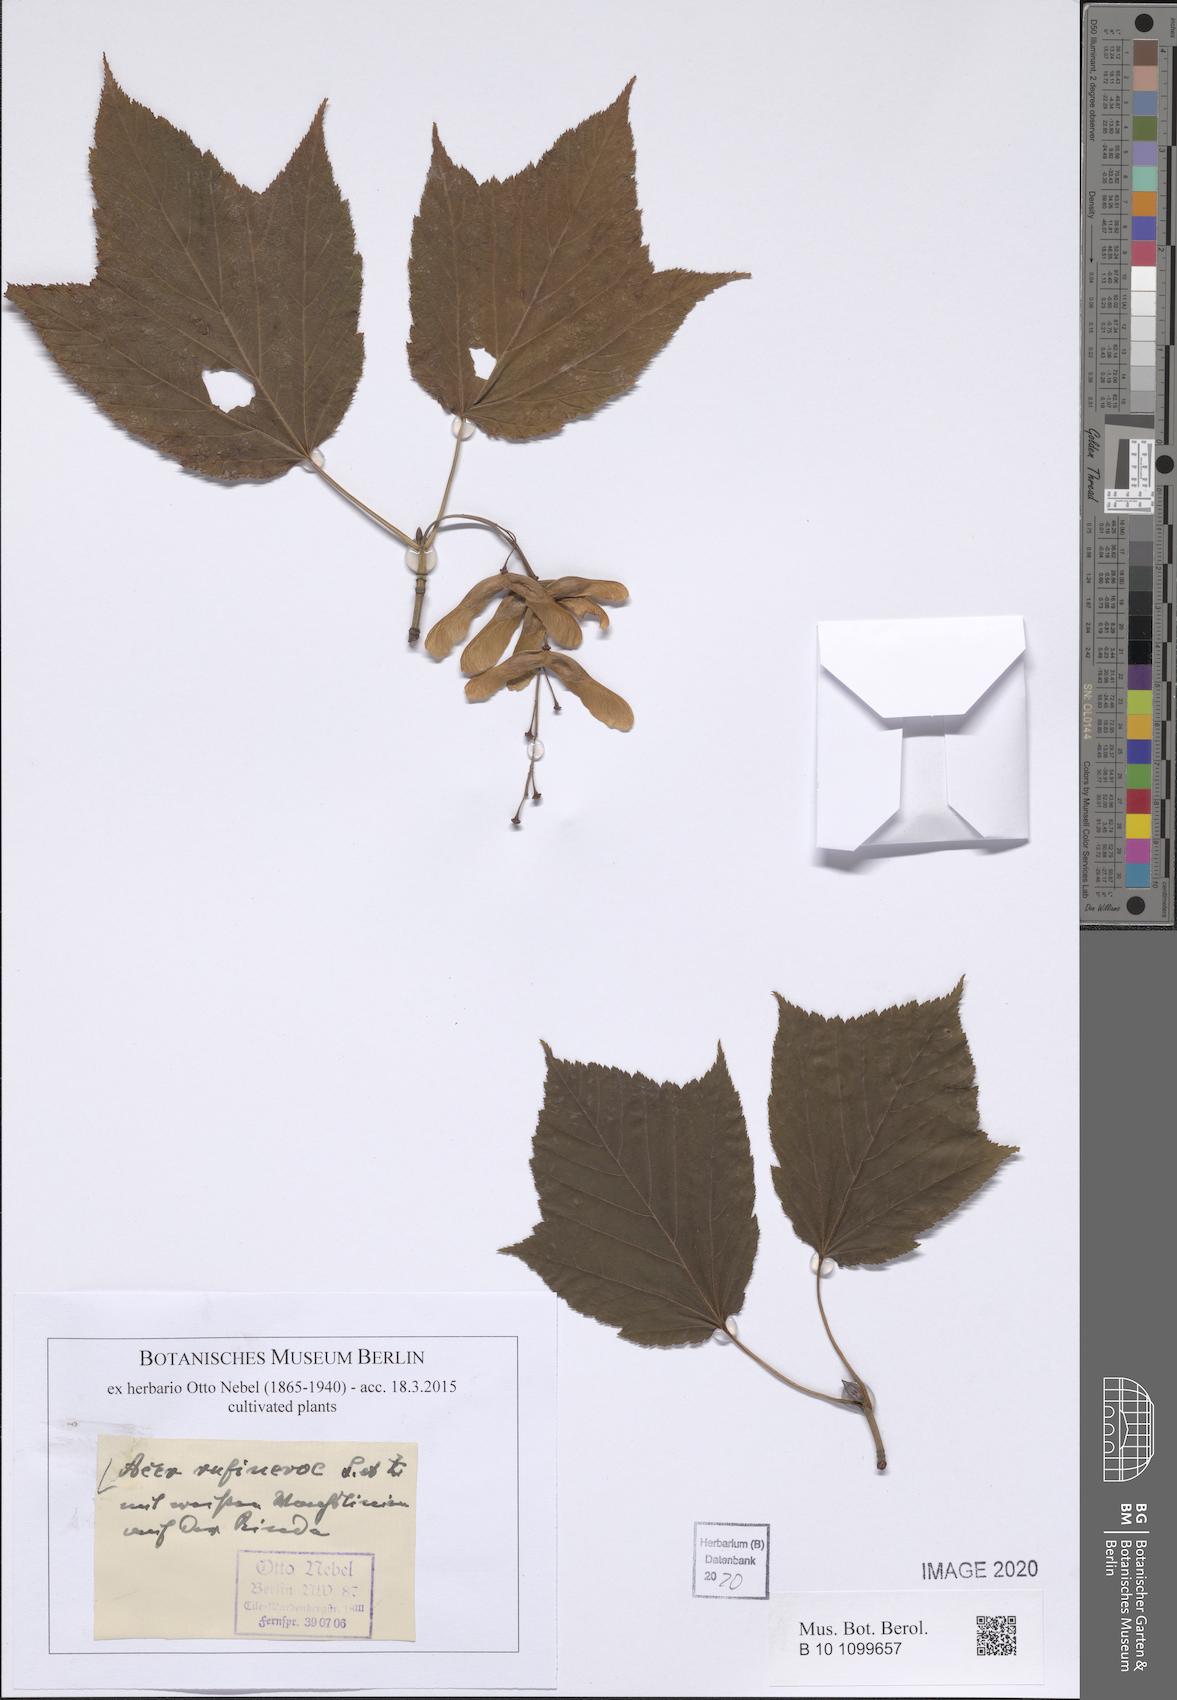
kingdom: Plantae
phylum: Tracheophyta
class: Magnoliopsida
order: Sapindales
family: Sapindaceae
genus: Acer
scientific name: Acer rufinerve
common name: Red veined maple
